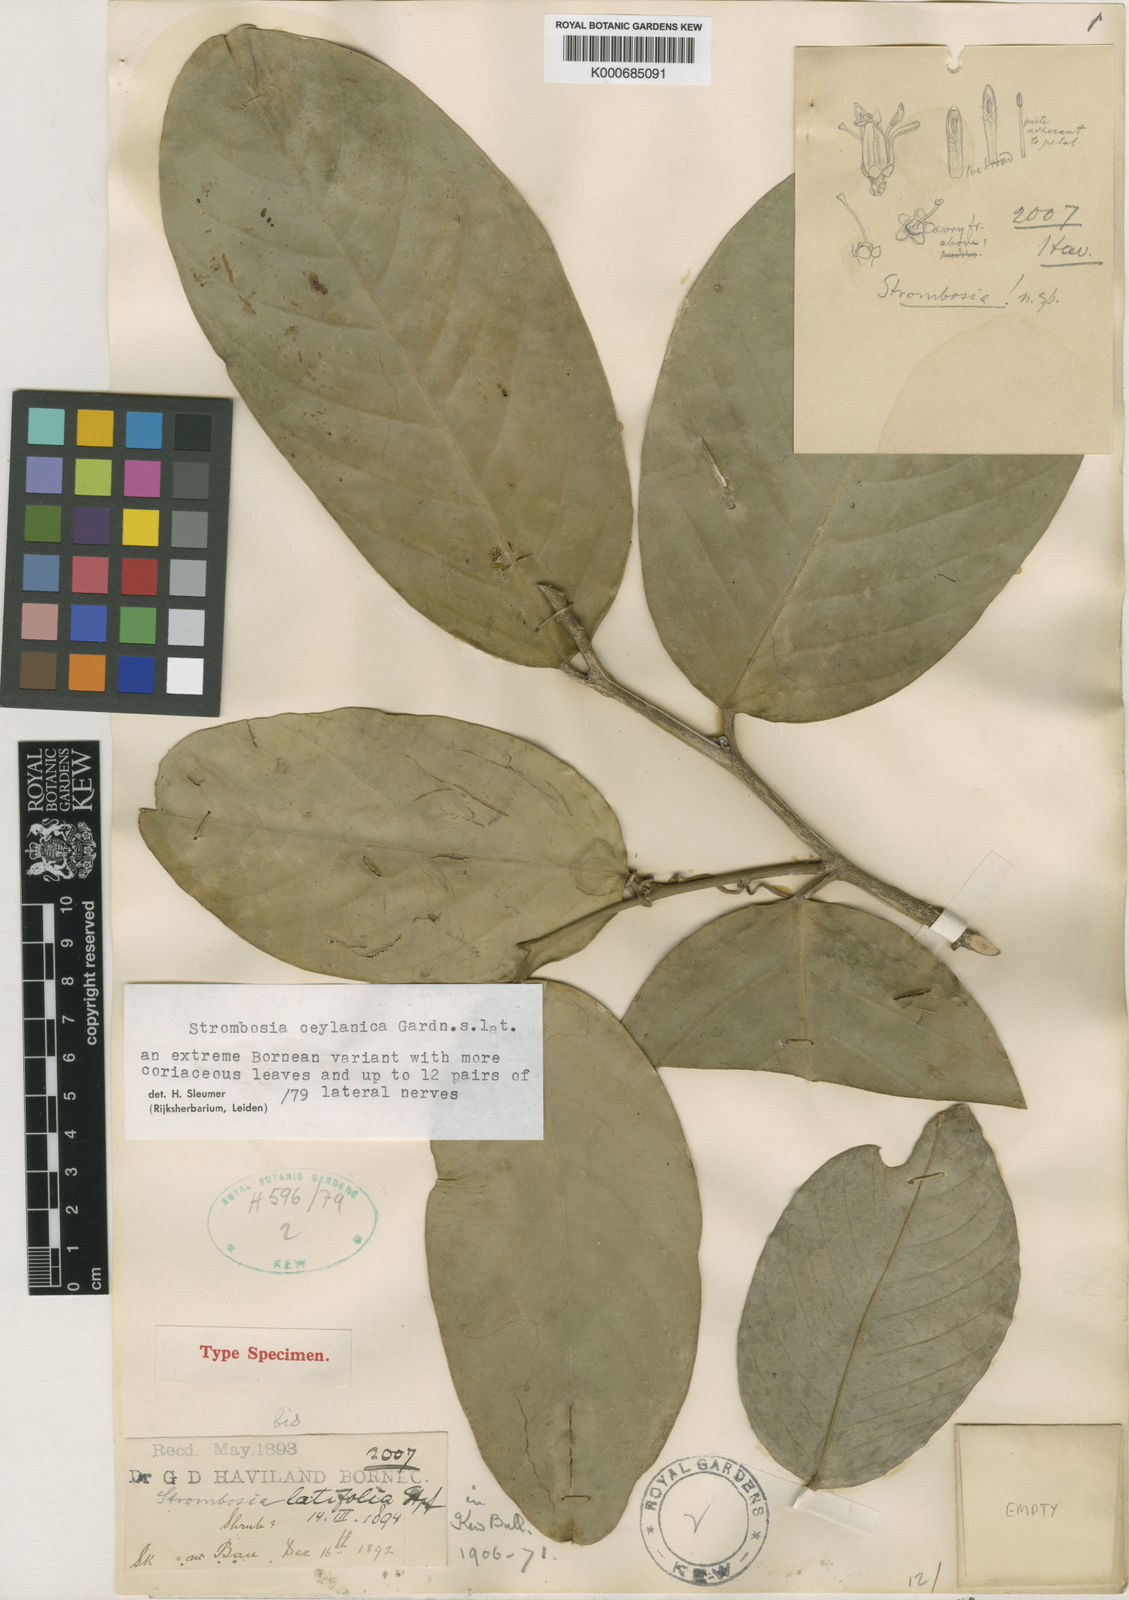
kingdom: Plantae
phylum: Tracheophyta
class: Magnoliopsida
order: Santalales
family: Strombosiaceae
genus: Strombosia
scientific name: Strombosia ceylanica
